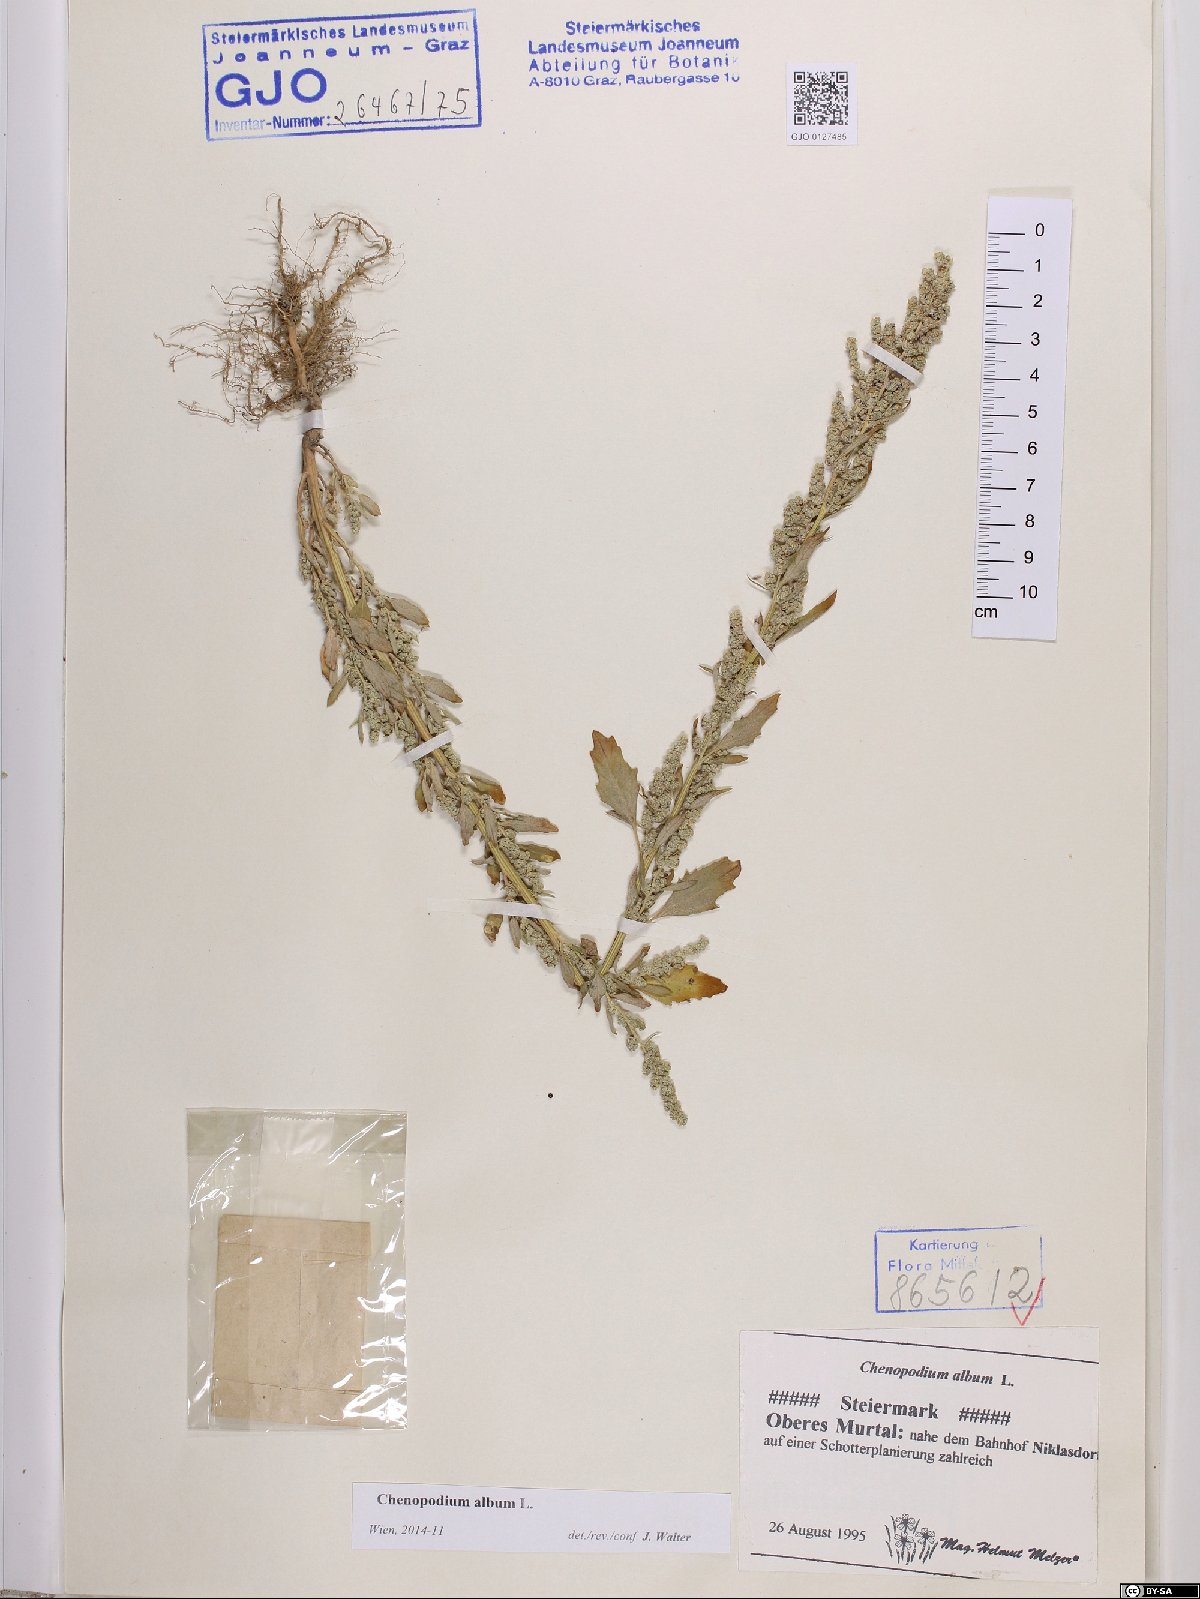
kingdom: Plantae
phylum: Tracheophyta
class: Magnoliopsida
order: Caryophyllales
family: Amaranthaceae
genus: Chenopodium
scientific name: Chenopodium album
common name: Fat-hen
